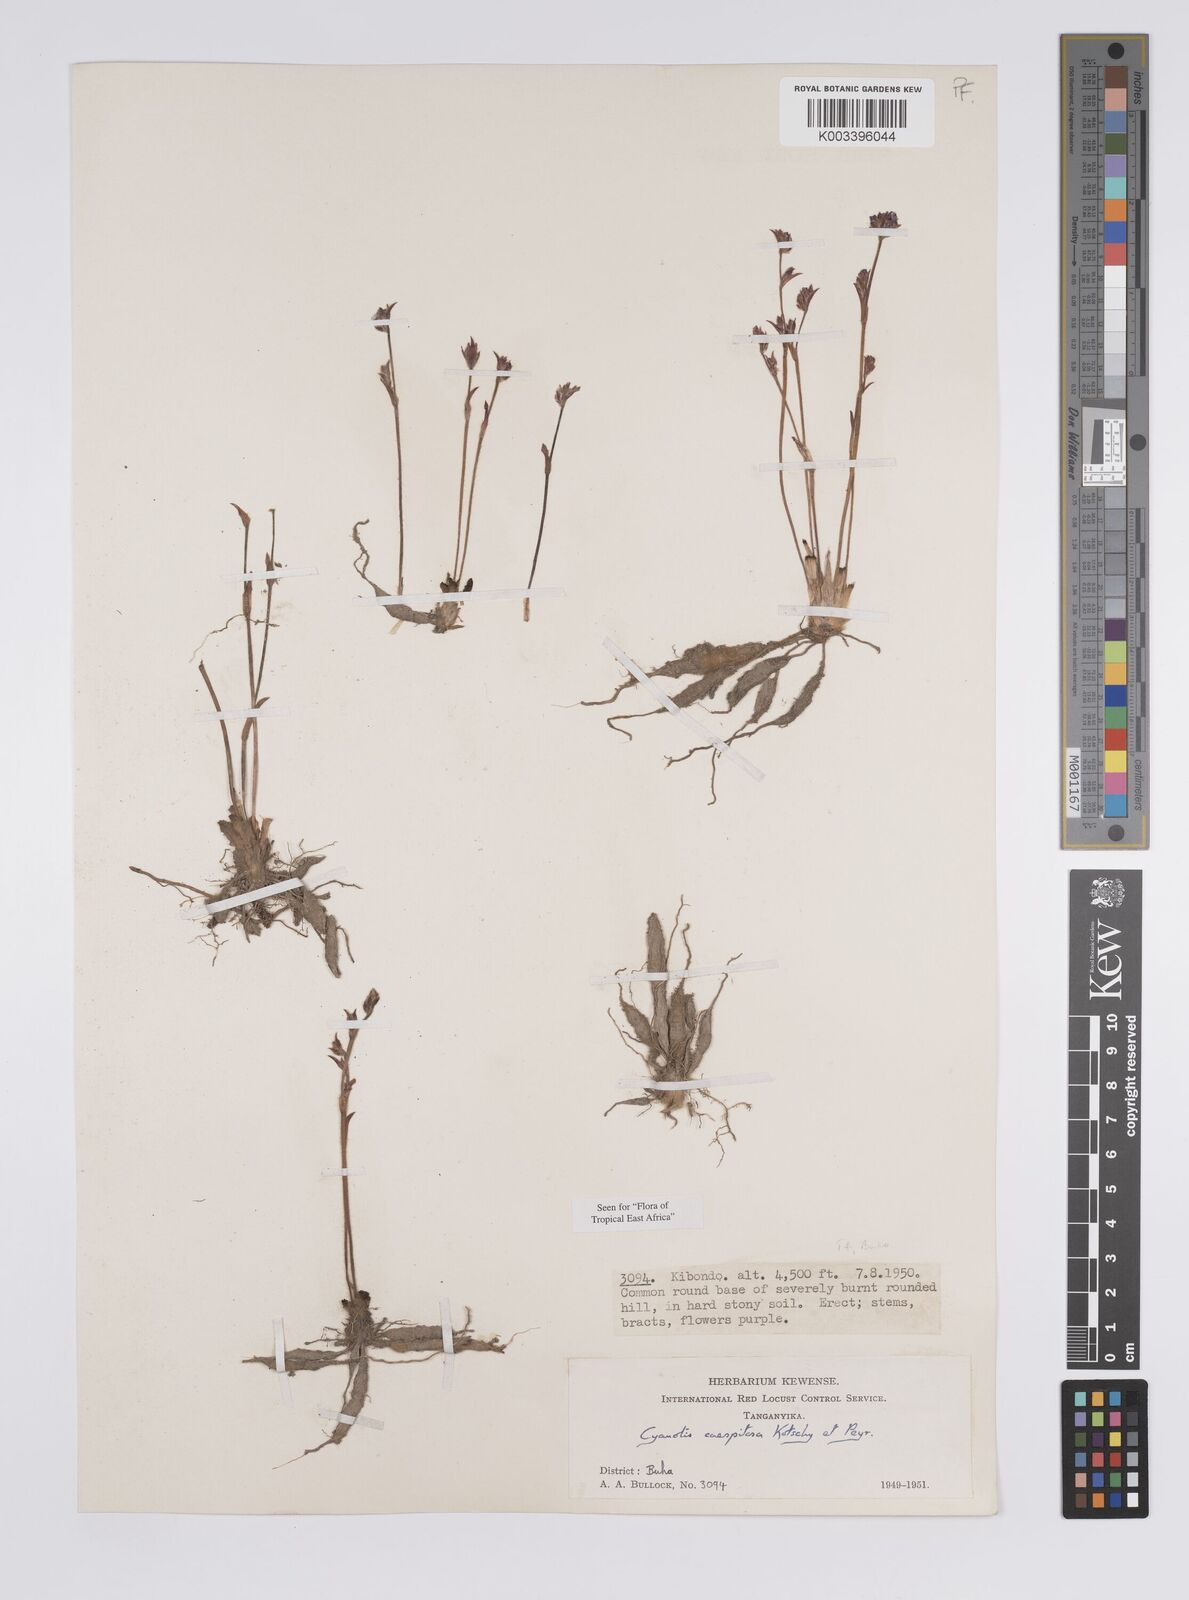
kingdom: Plantae
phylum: Tracheophyta
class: Liliopsida
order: Commelinales
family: Commelinaceae
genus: Cyanotis
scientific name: Cyanotis caespitosa
